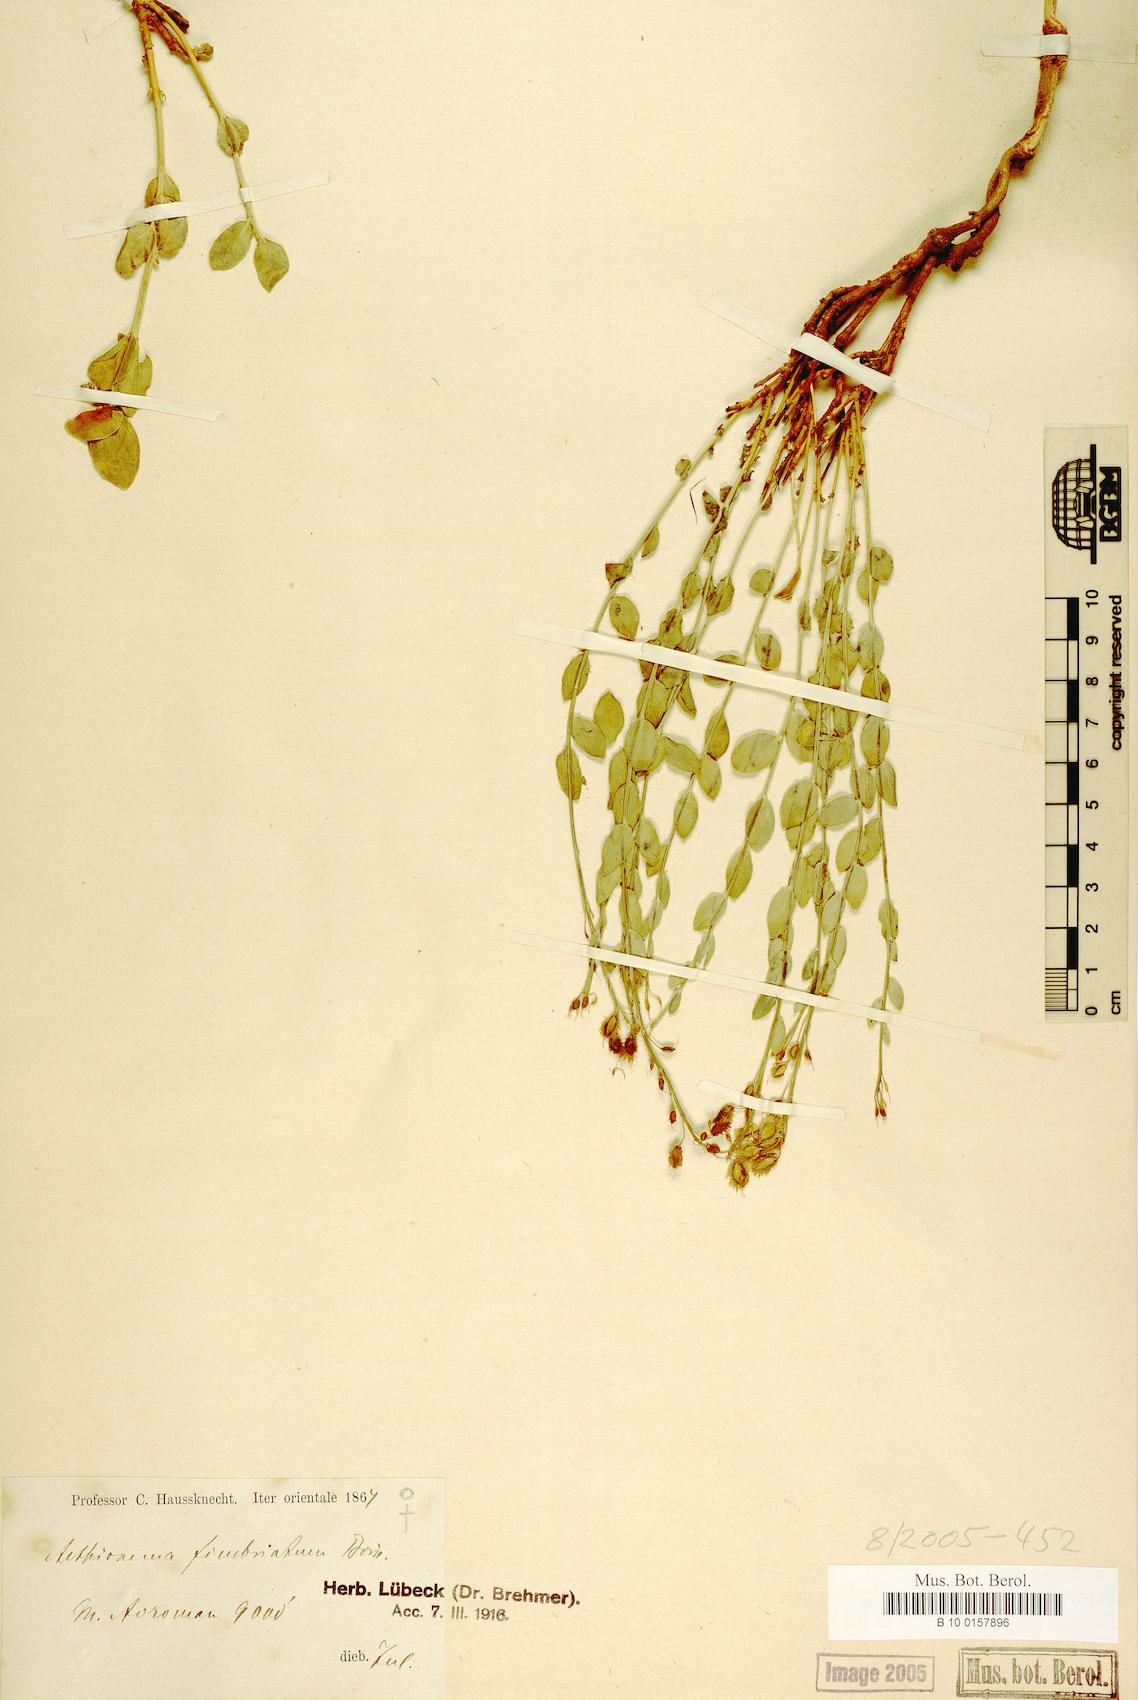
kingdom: Plantae
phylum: Tracheophyta
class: Magnoliopsida
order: Brassicales
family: Brassicaceae
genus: Aethionema
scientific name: Aethionema fimbriatum
